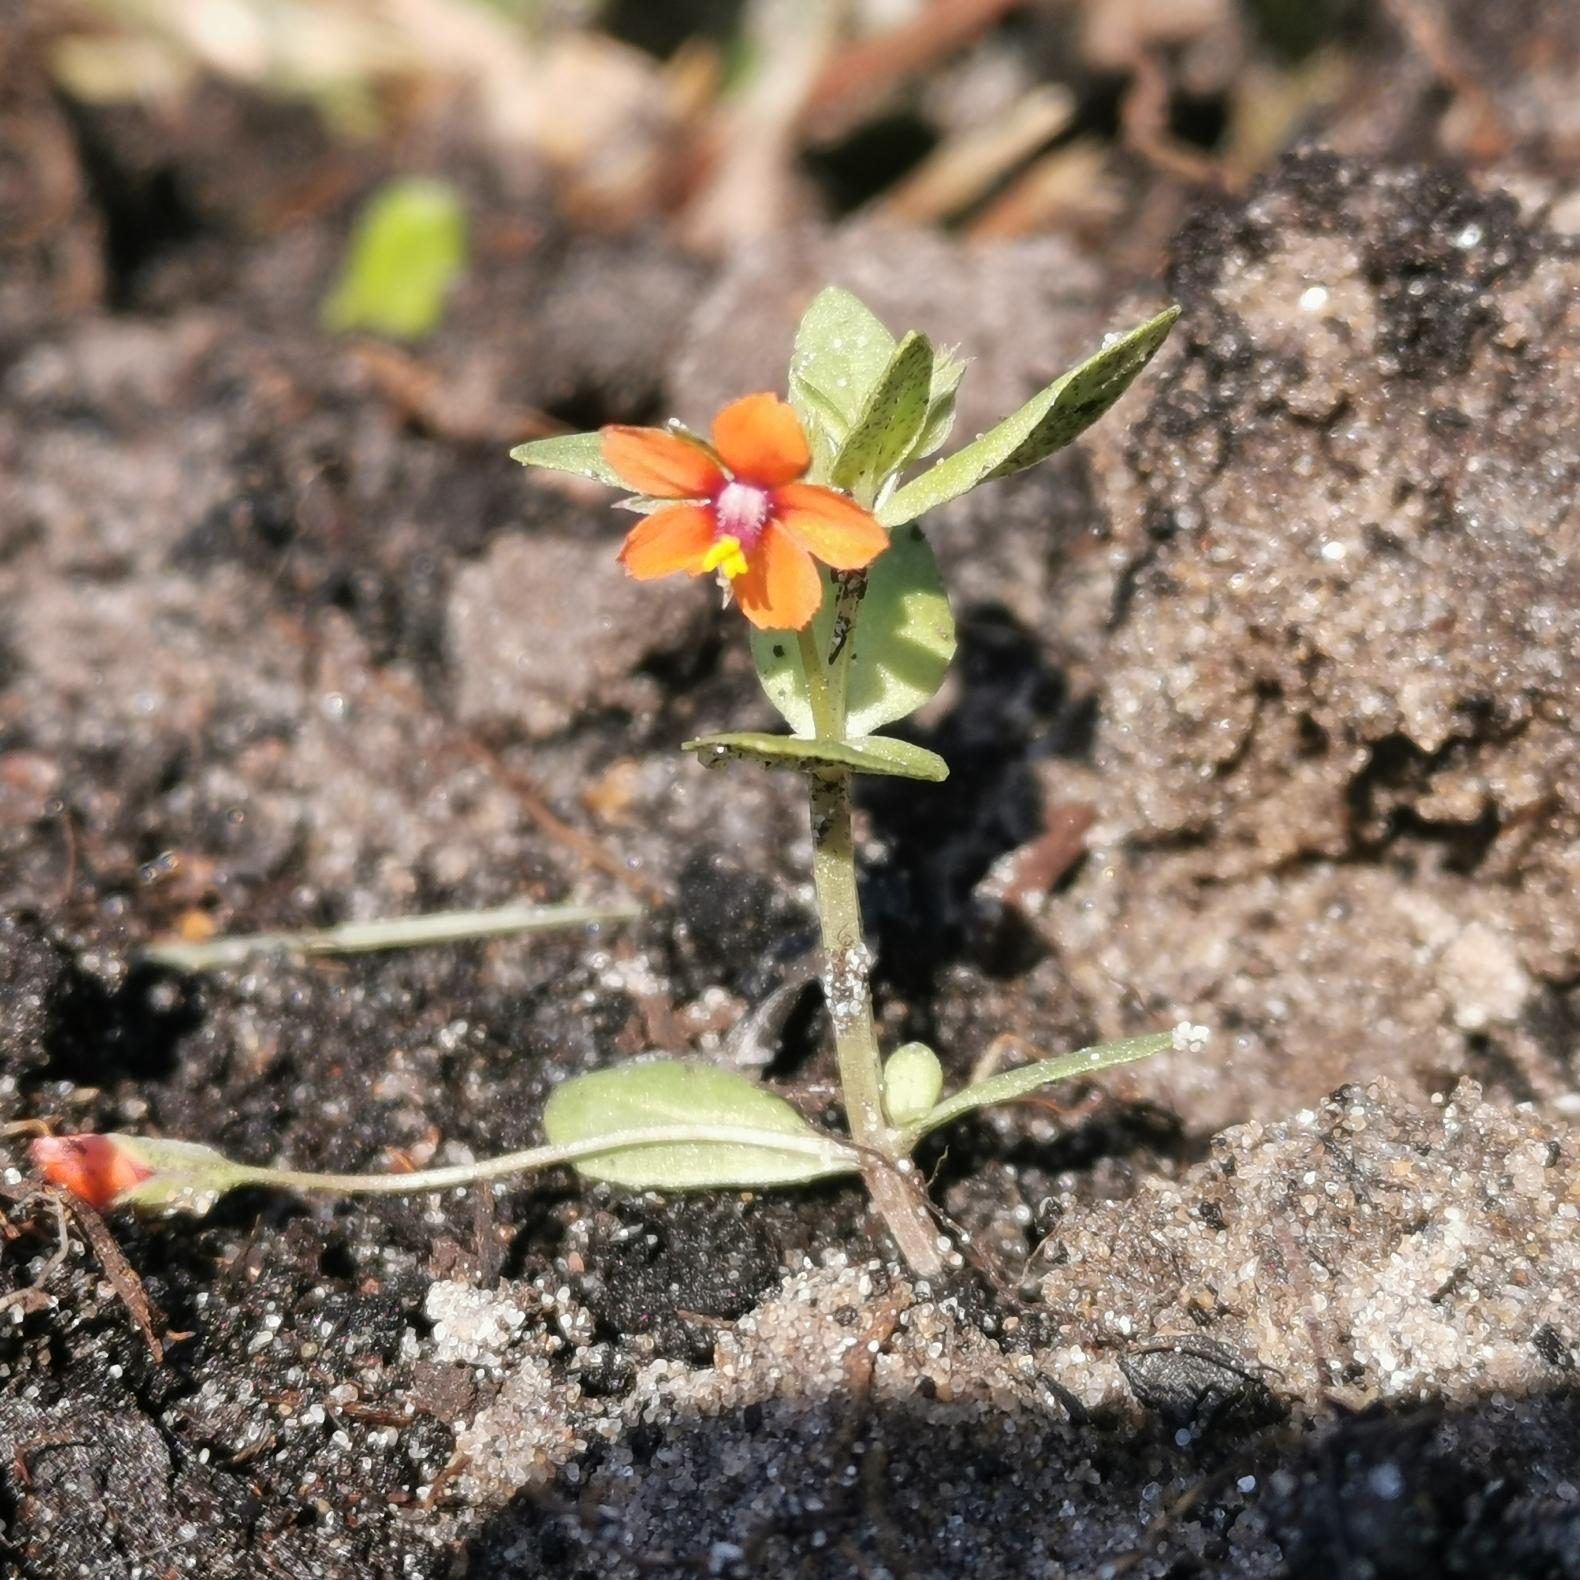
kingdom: Plantae
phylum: Tracheophyta
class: Magnoliopsida
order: Ericales
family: Primulaceae
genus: Lysimachia
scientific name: Lysimachia arvensis
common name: Rød arve
